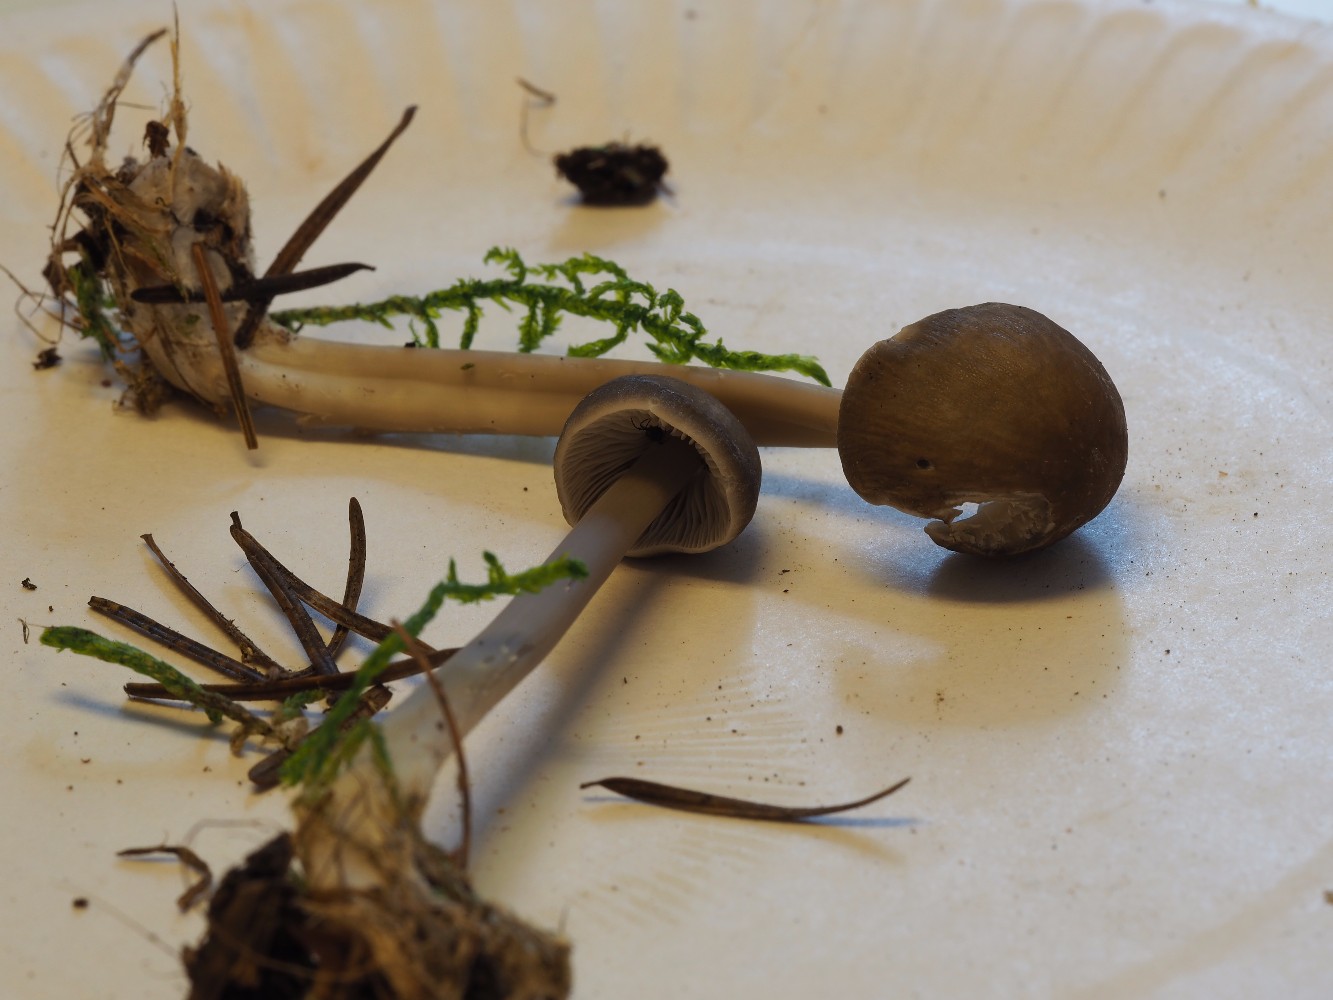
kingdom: Fungi
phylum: Basidiomycota
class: Agaricomycetes
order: Agaricales
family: Mycenaceae
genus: Mycena
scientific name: Mycena galericulata
